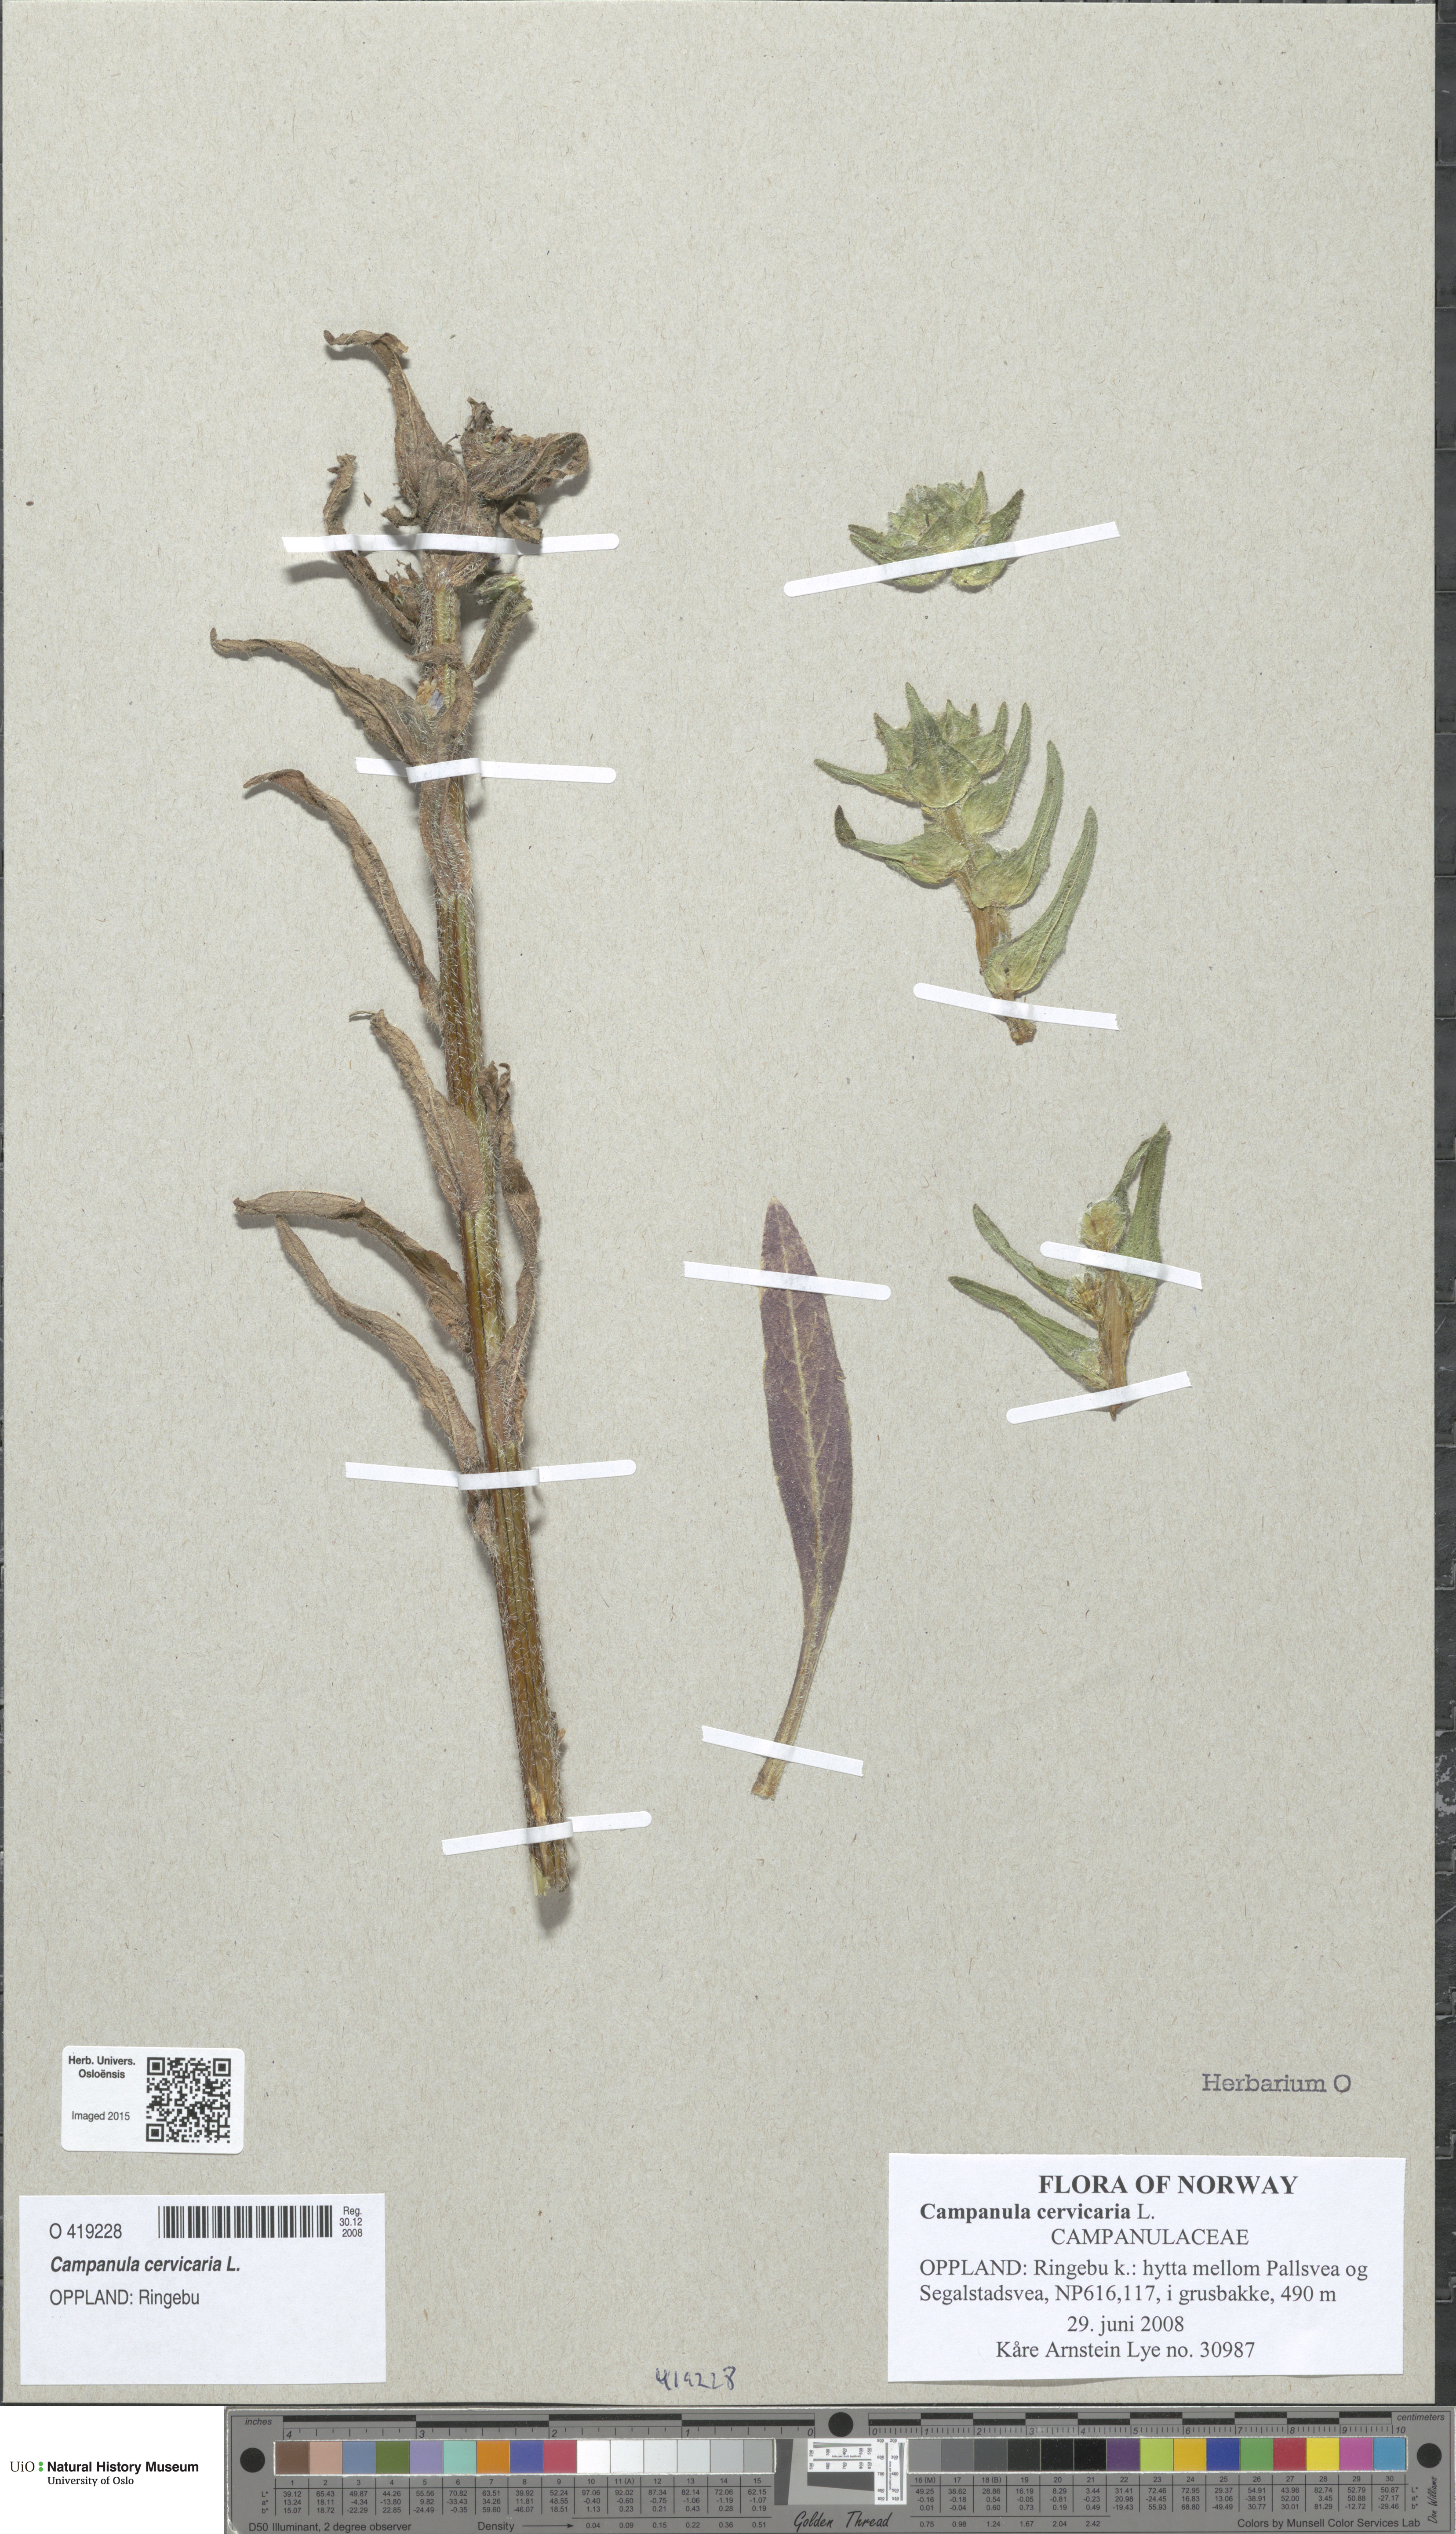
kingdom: Plantae
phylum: Tracheophyta
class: Magnoliopsida
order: Asterales
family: Campanulaceae
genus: Campanula
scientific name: Campanula cervicaria
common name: Bristly bellflower
